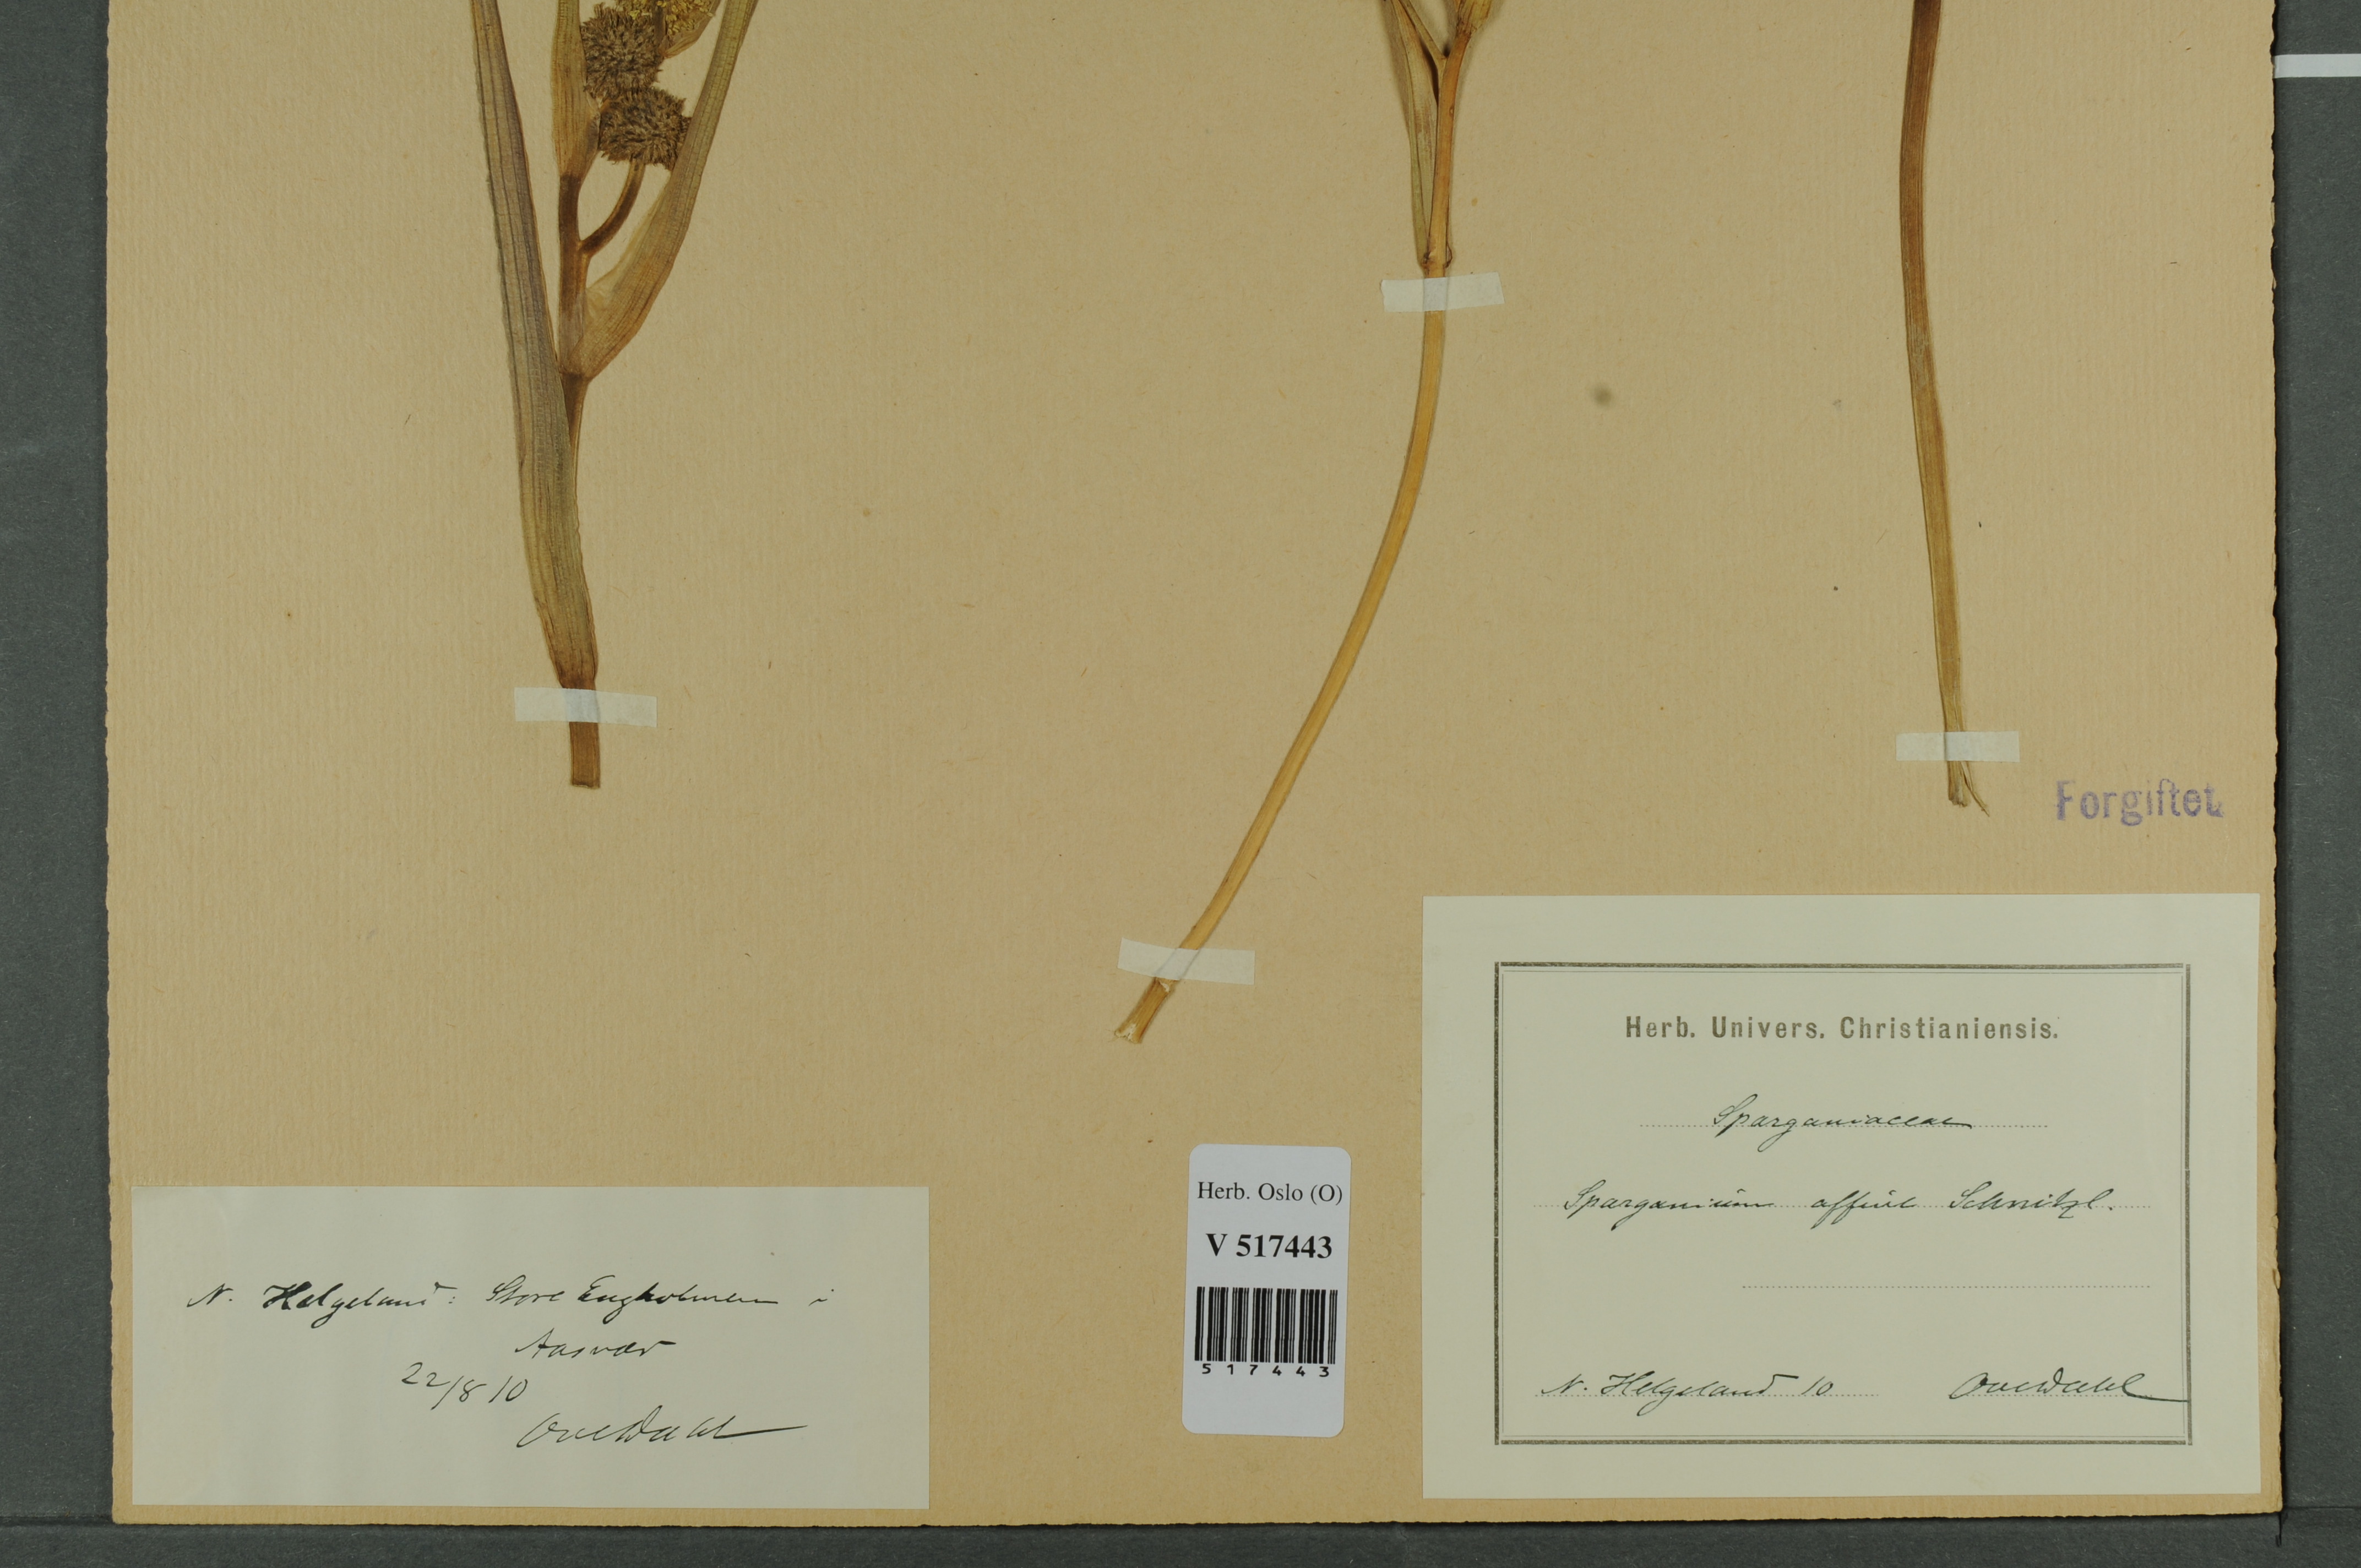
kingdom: Plantae
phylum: Tracheophyta
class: Liliopsida
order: Poales
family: Typhaceae
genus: Sparganium
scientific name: Sparganium angustifolium
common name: Floating bur-reed
